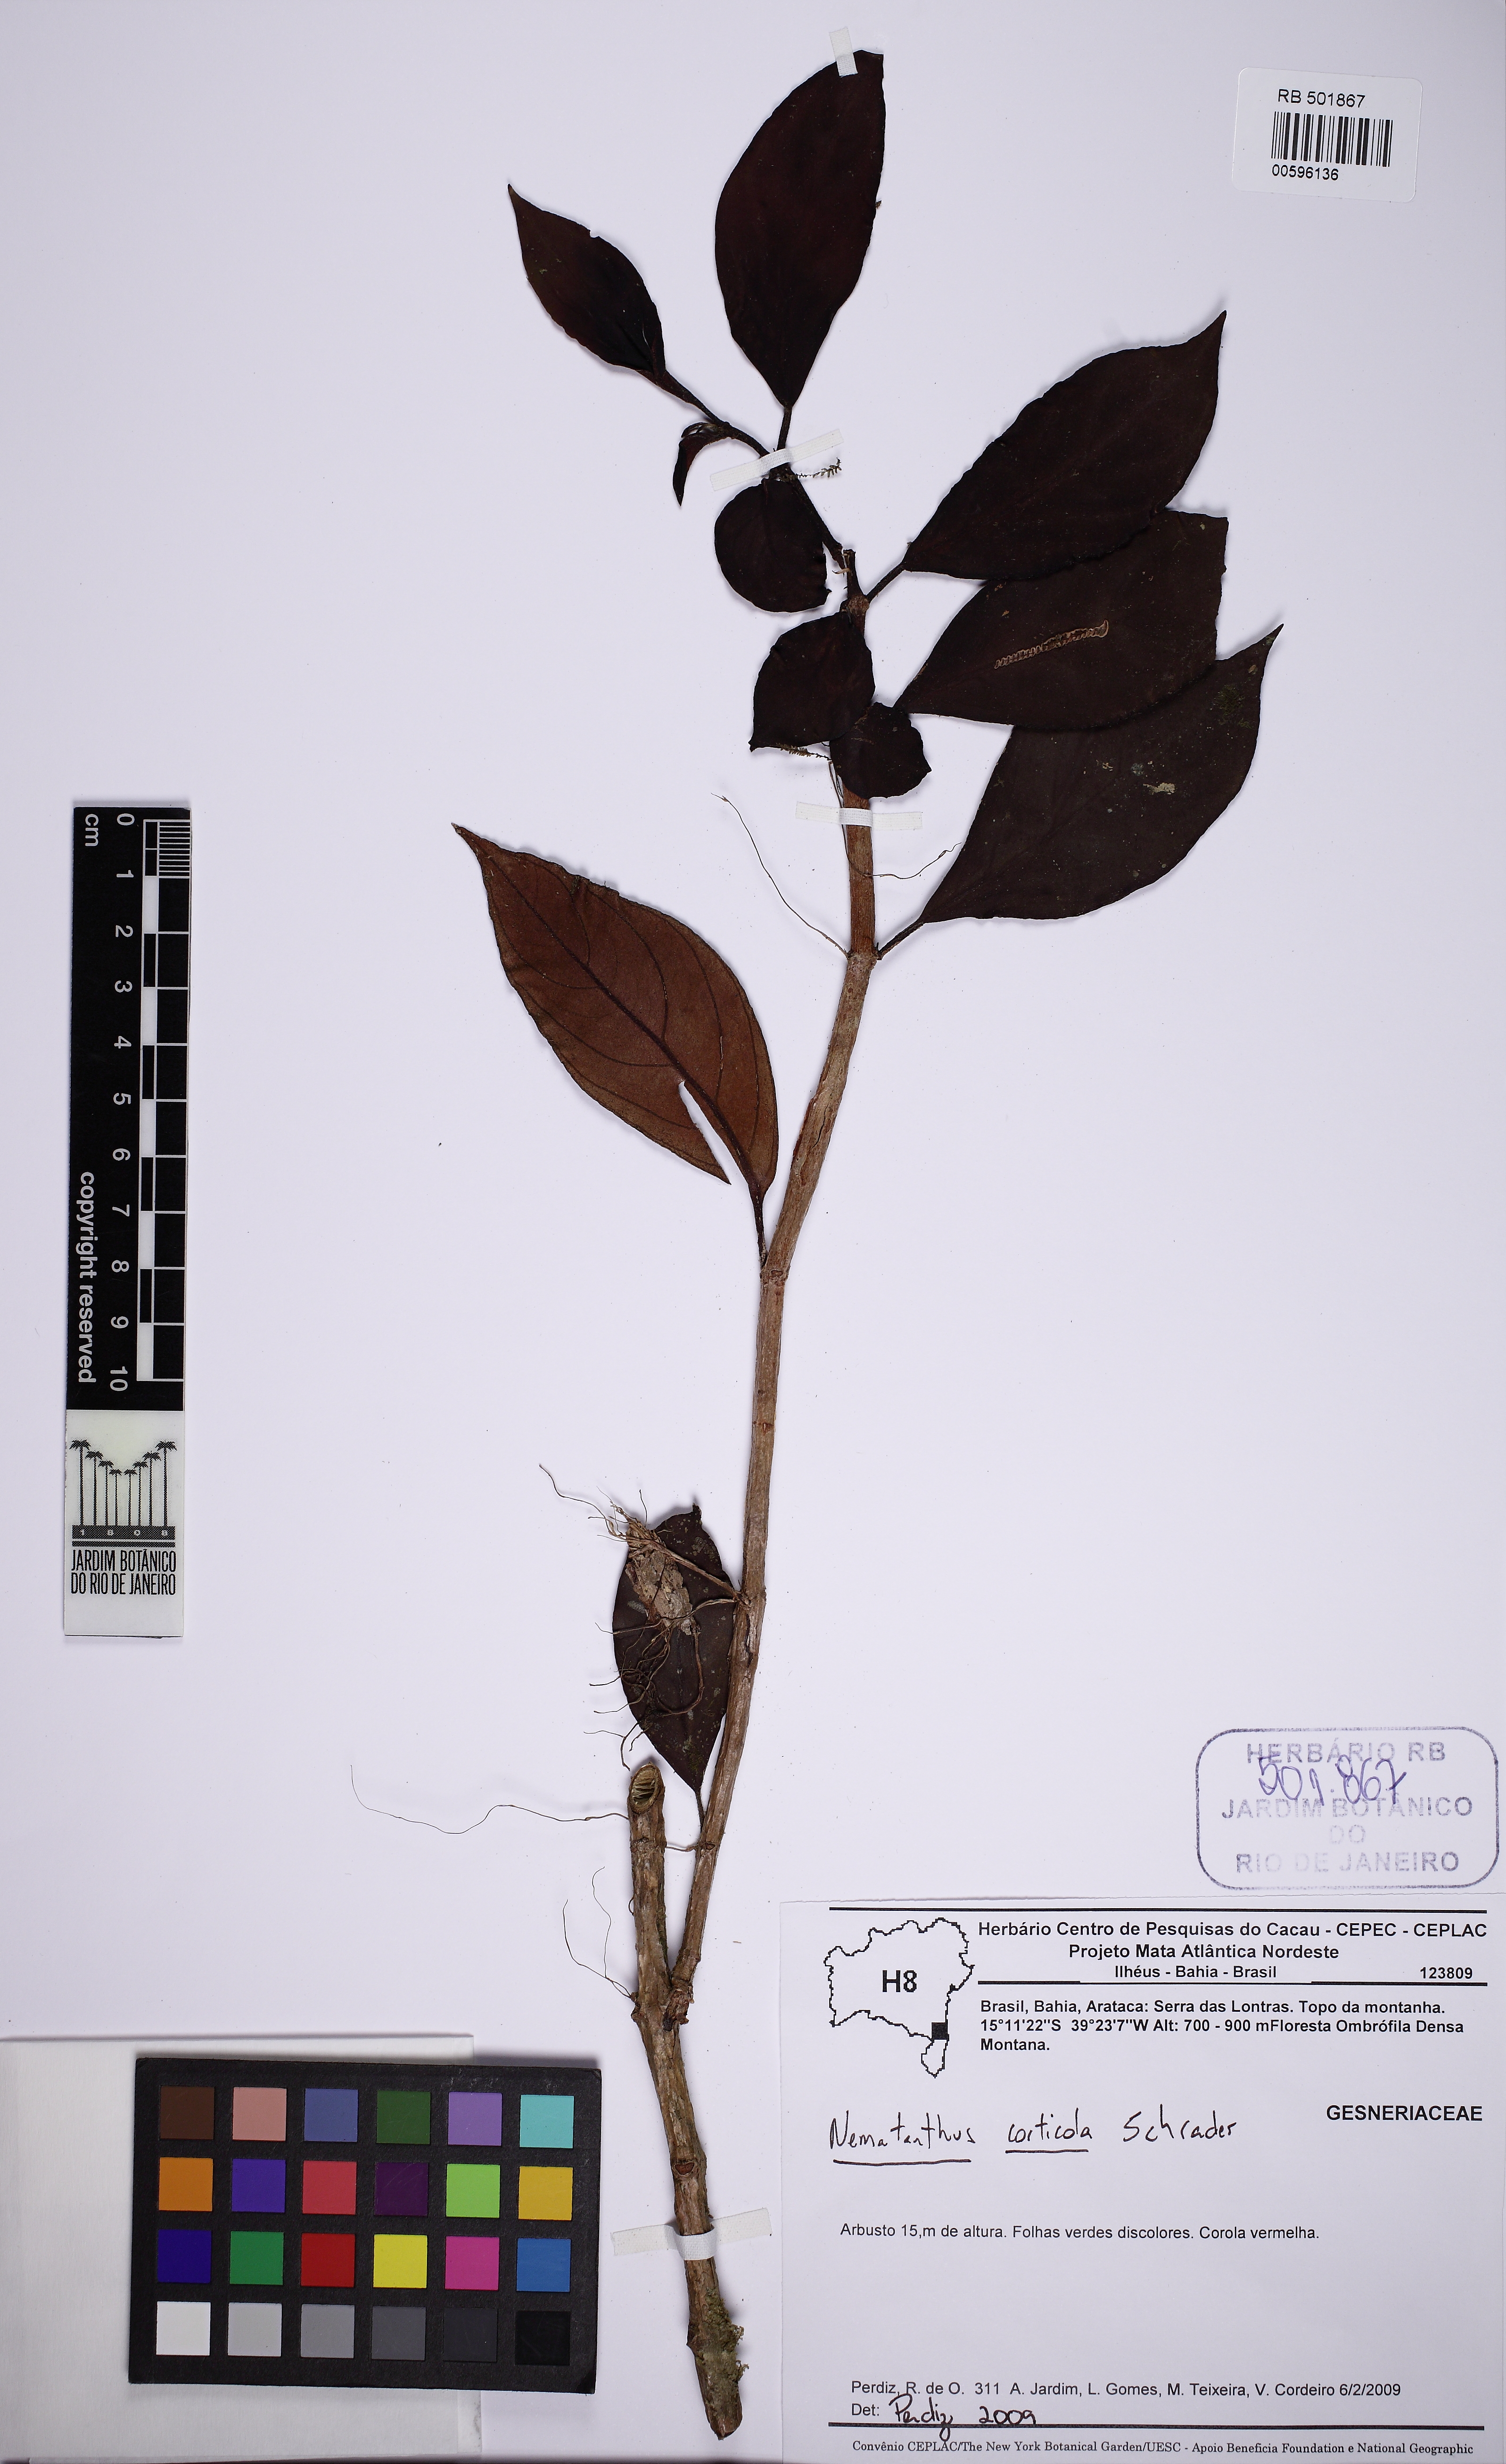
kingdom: Plantae
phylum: Tracheophyta
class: Magnoliopsida
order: Lamiales
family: Gesneriaceae
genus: Nematanthus
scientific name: Nematanthus corticola
